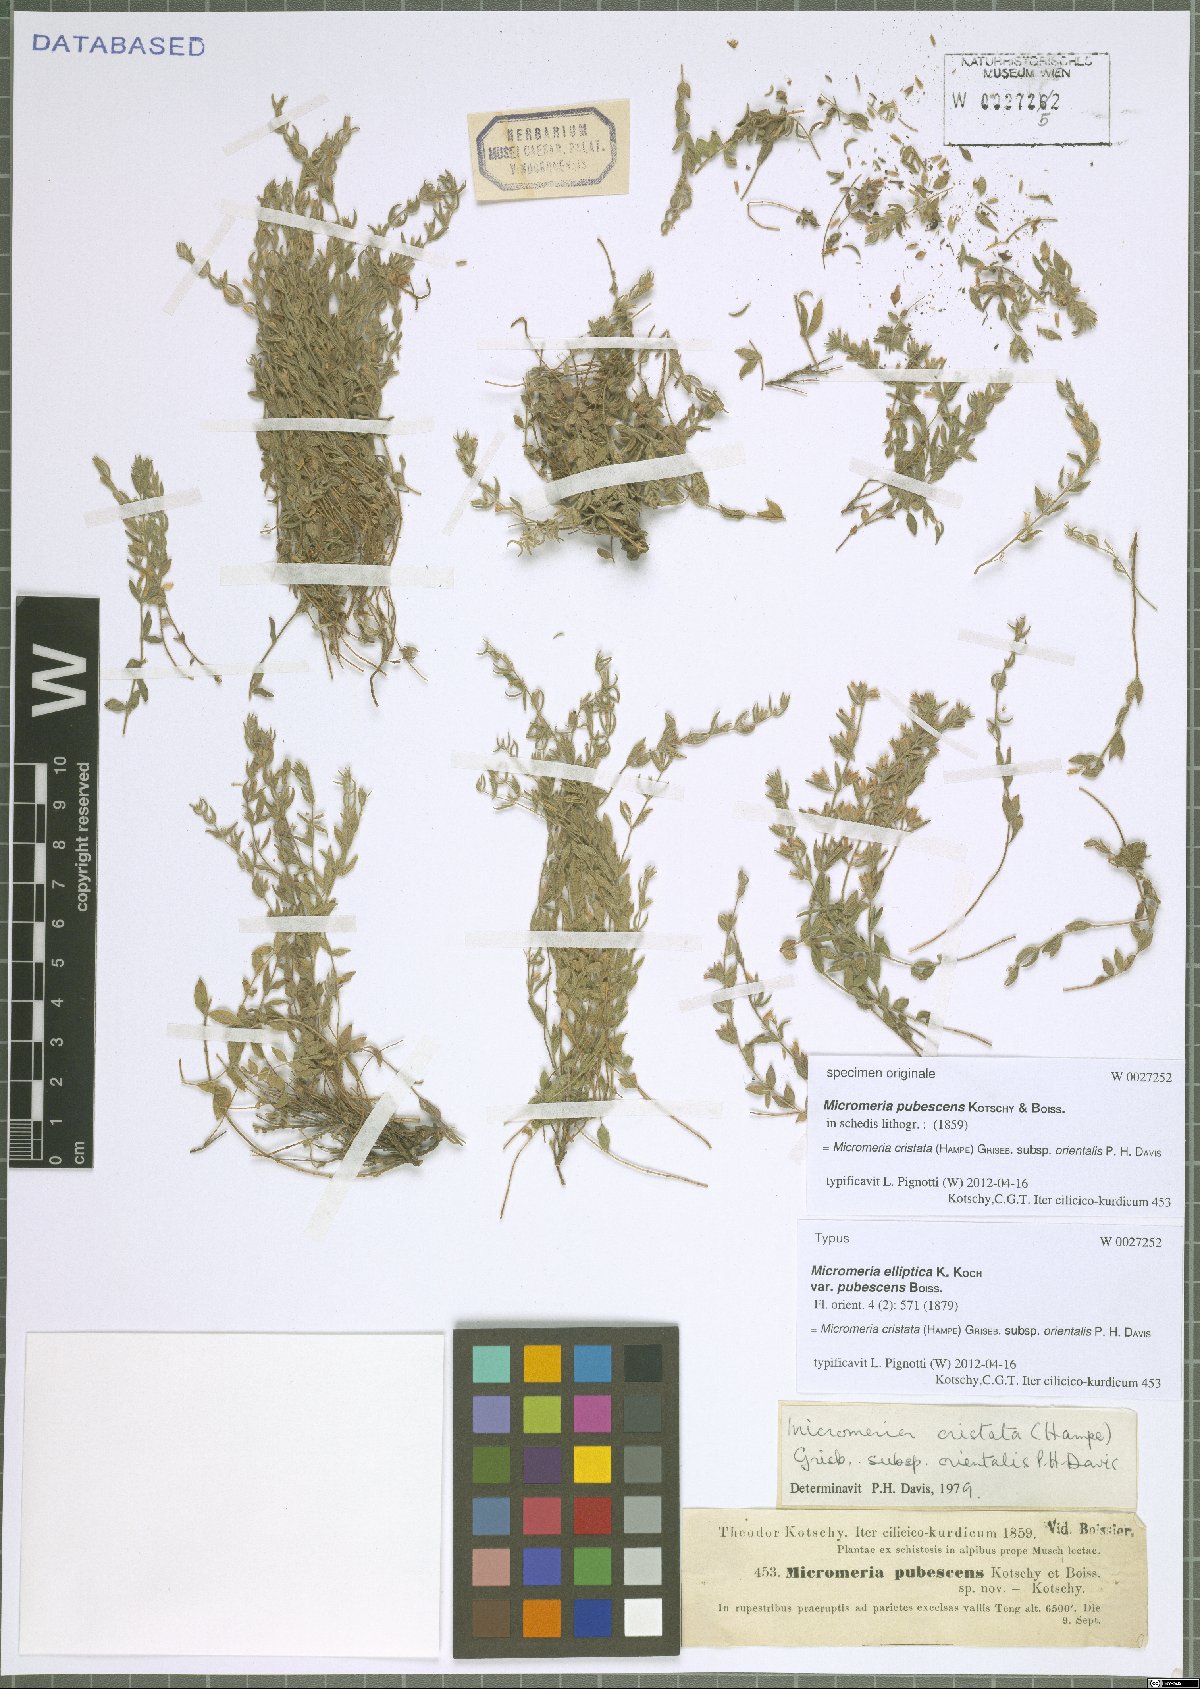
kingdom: Plantae
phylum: Tracheophyta
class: Magnoliopsida
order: Lamiales
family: Lamiaceae
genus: Micromeria
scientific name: Micromeria cristata
